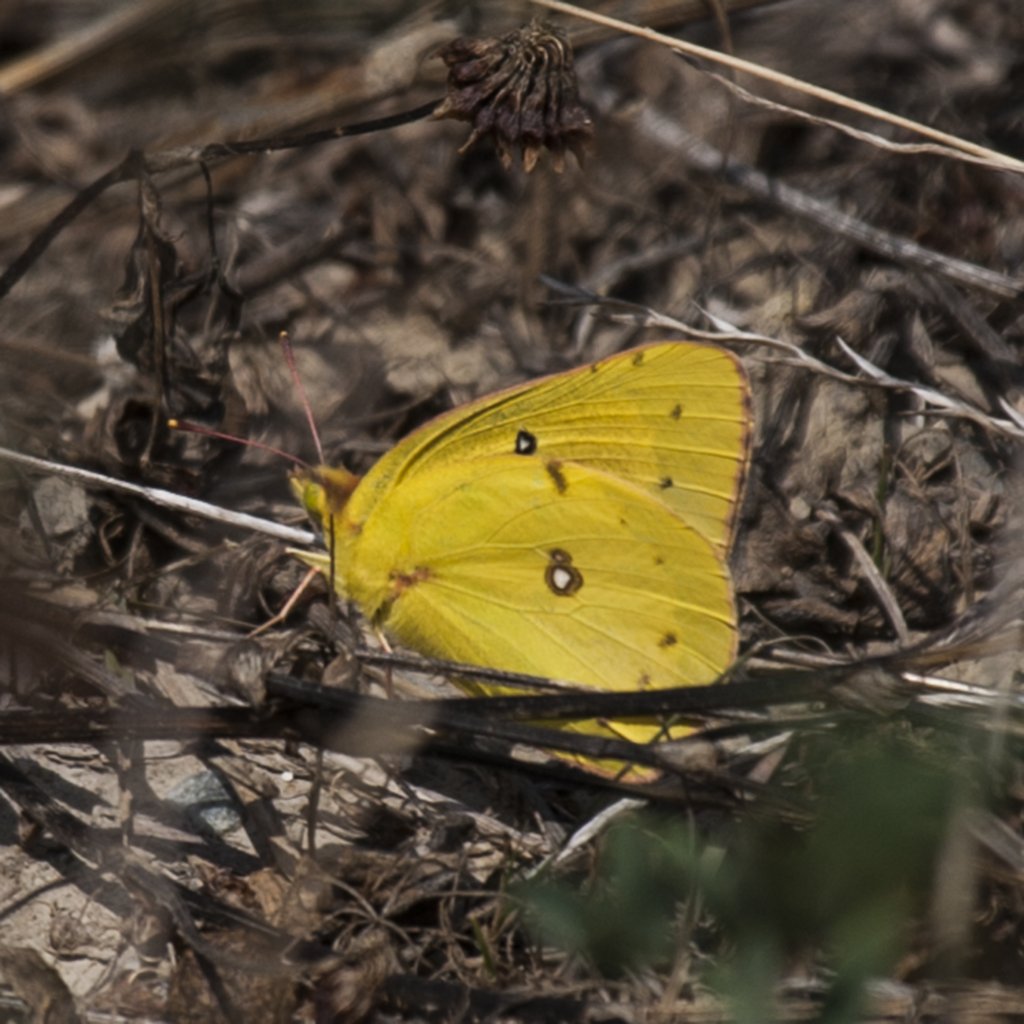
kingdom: Animalia
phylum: Arthropoda
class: Insecta
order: Lepidoptera
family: Pieridae
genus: Colias
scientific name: Colias eurytheme
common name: Orange Sulphur
